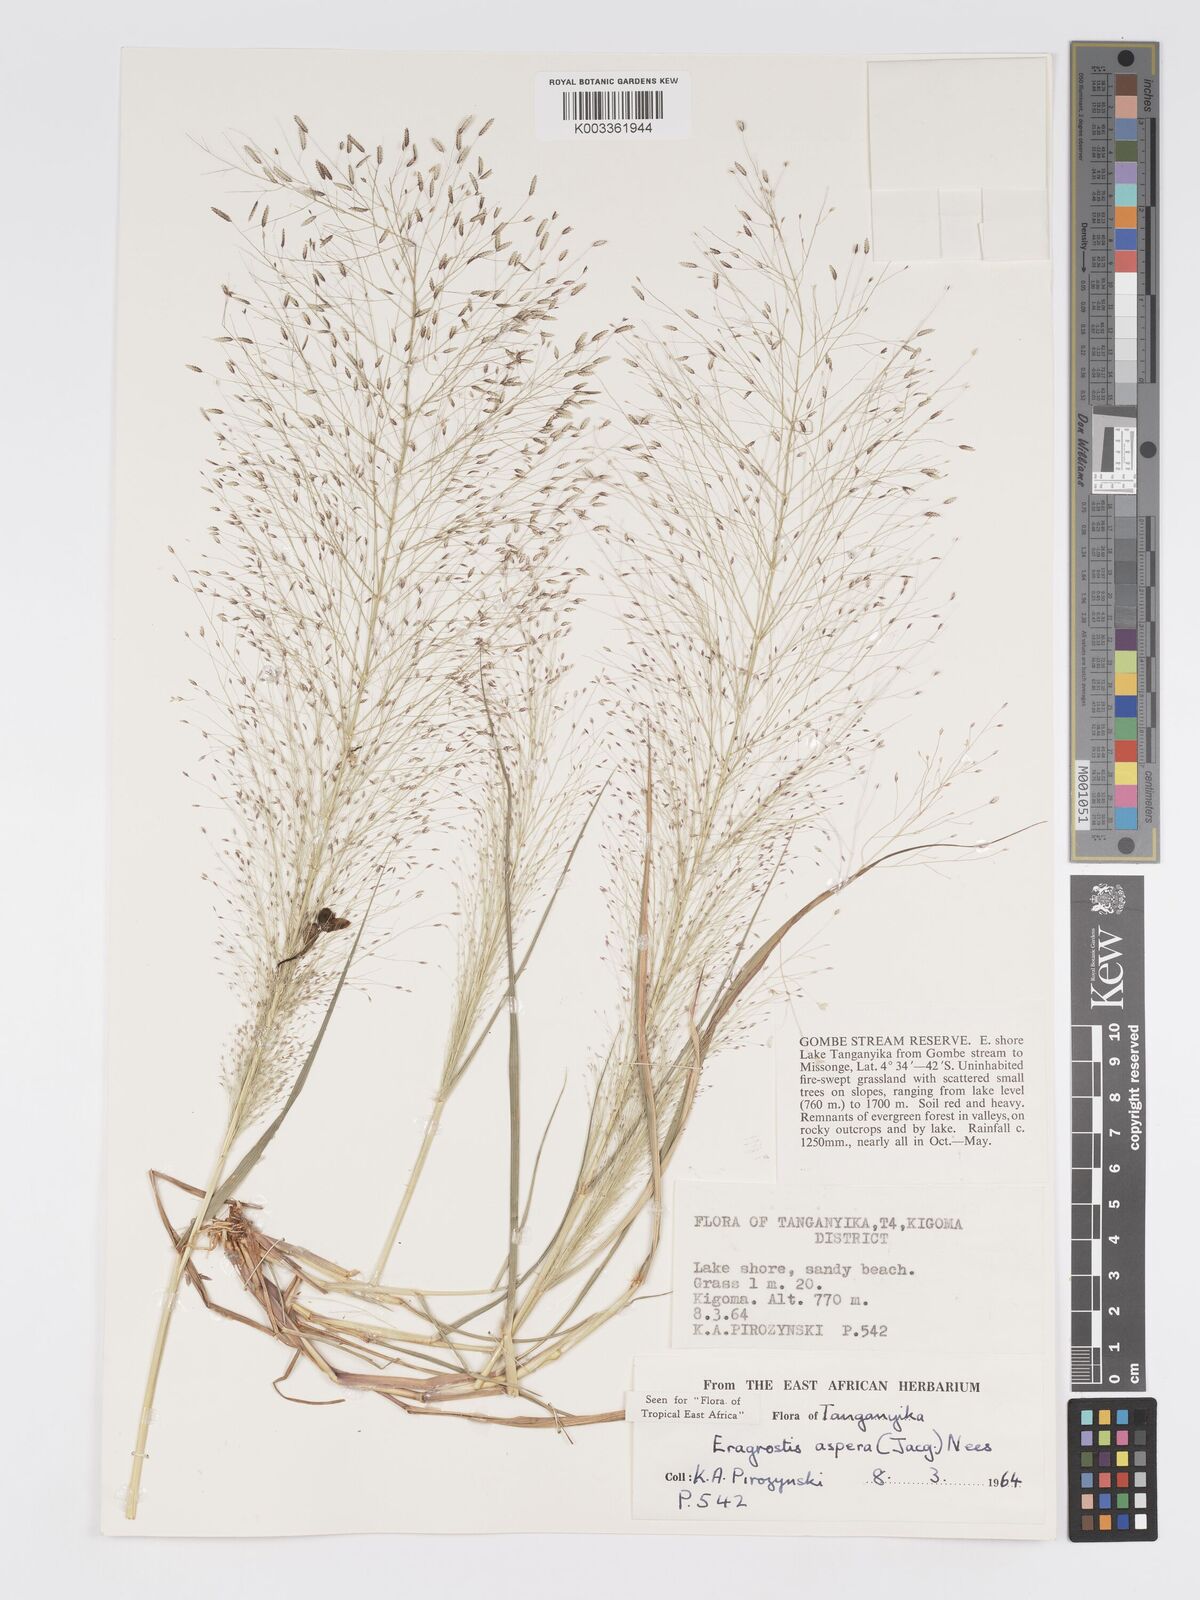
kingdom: Plantae
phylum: Tracheophyta
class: Liliopsida
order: Poales
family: Poaceae
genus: Eragrostis
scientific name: Eragrostis aspera
